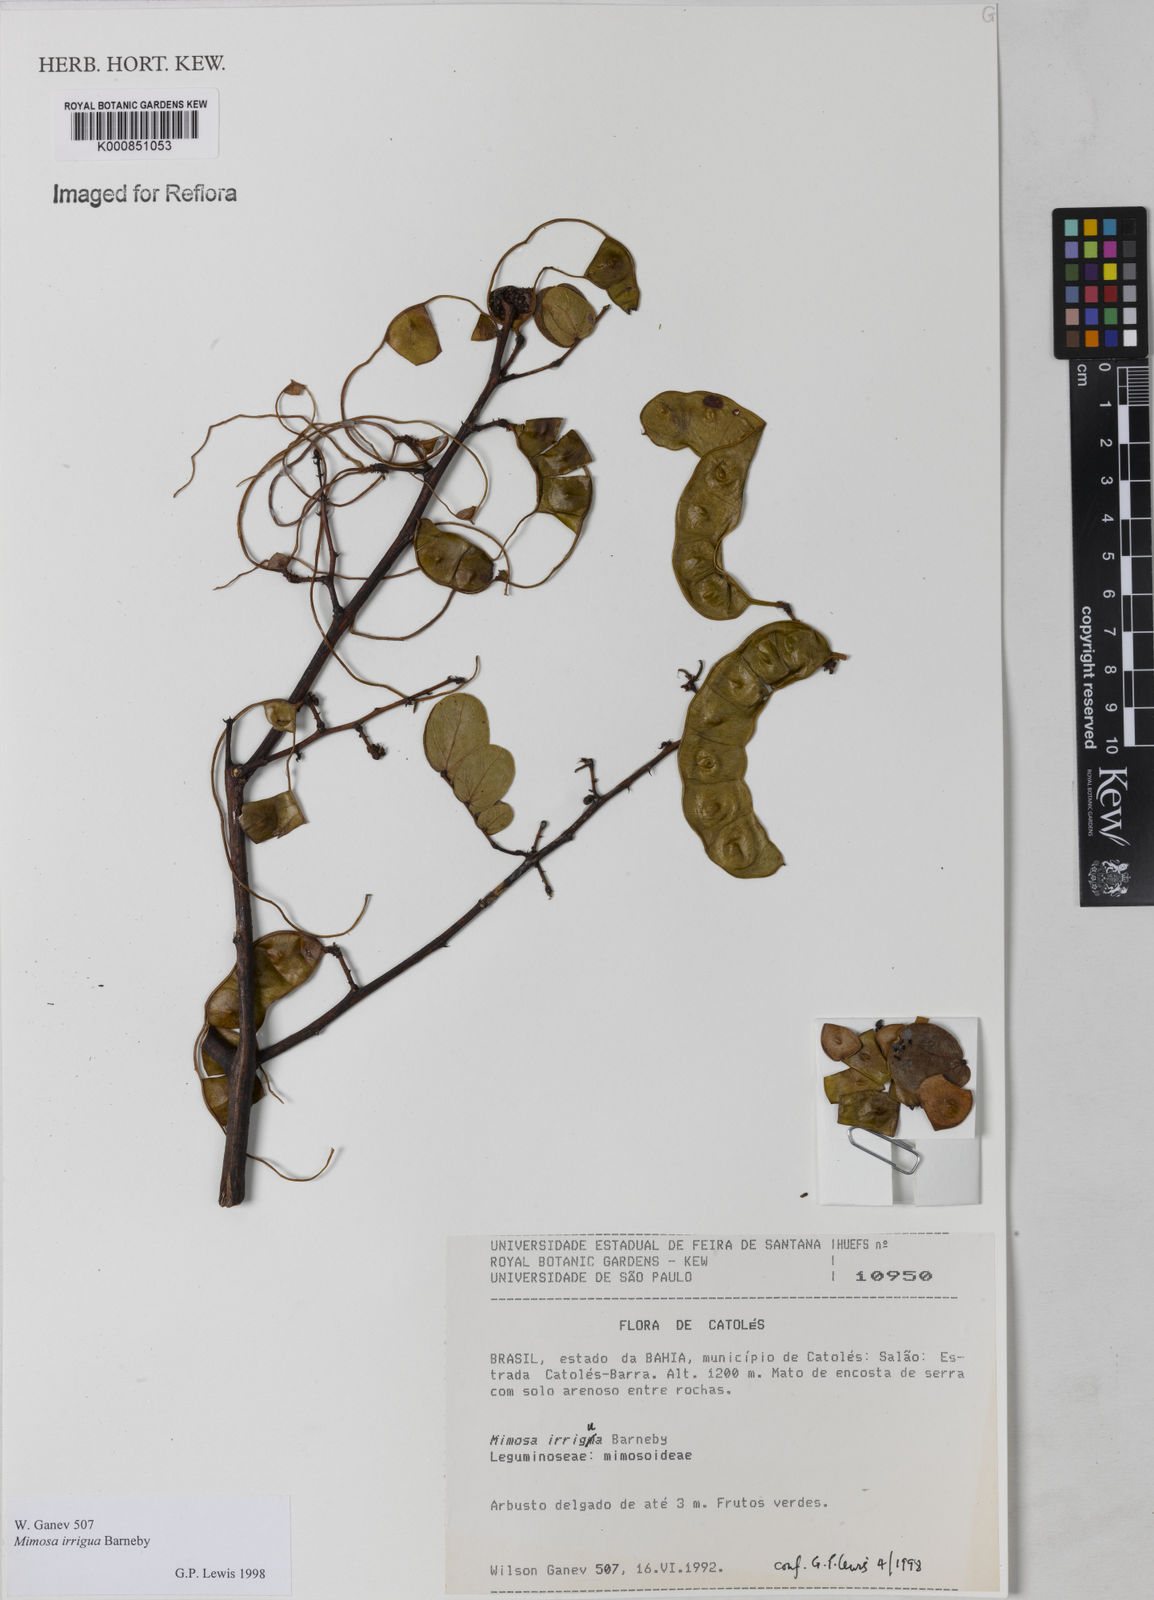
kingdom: Plantae
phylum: Tracheophyta
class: Magnoliopsida
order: Fabales
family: Fabaceae
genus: Mimosa
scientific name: Mimosa irrigua
